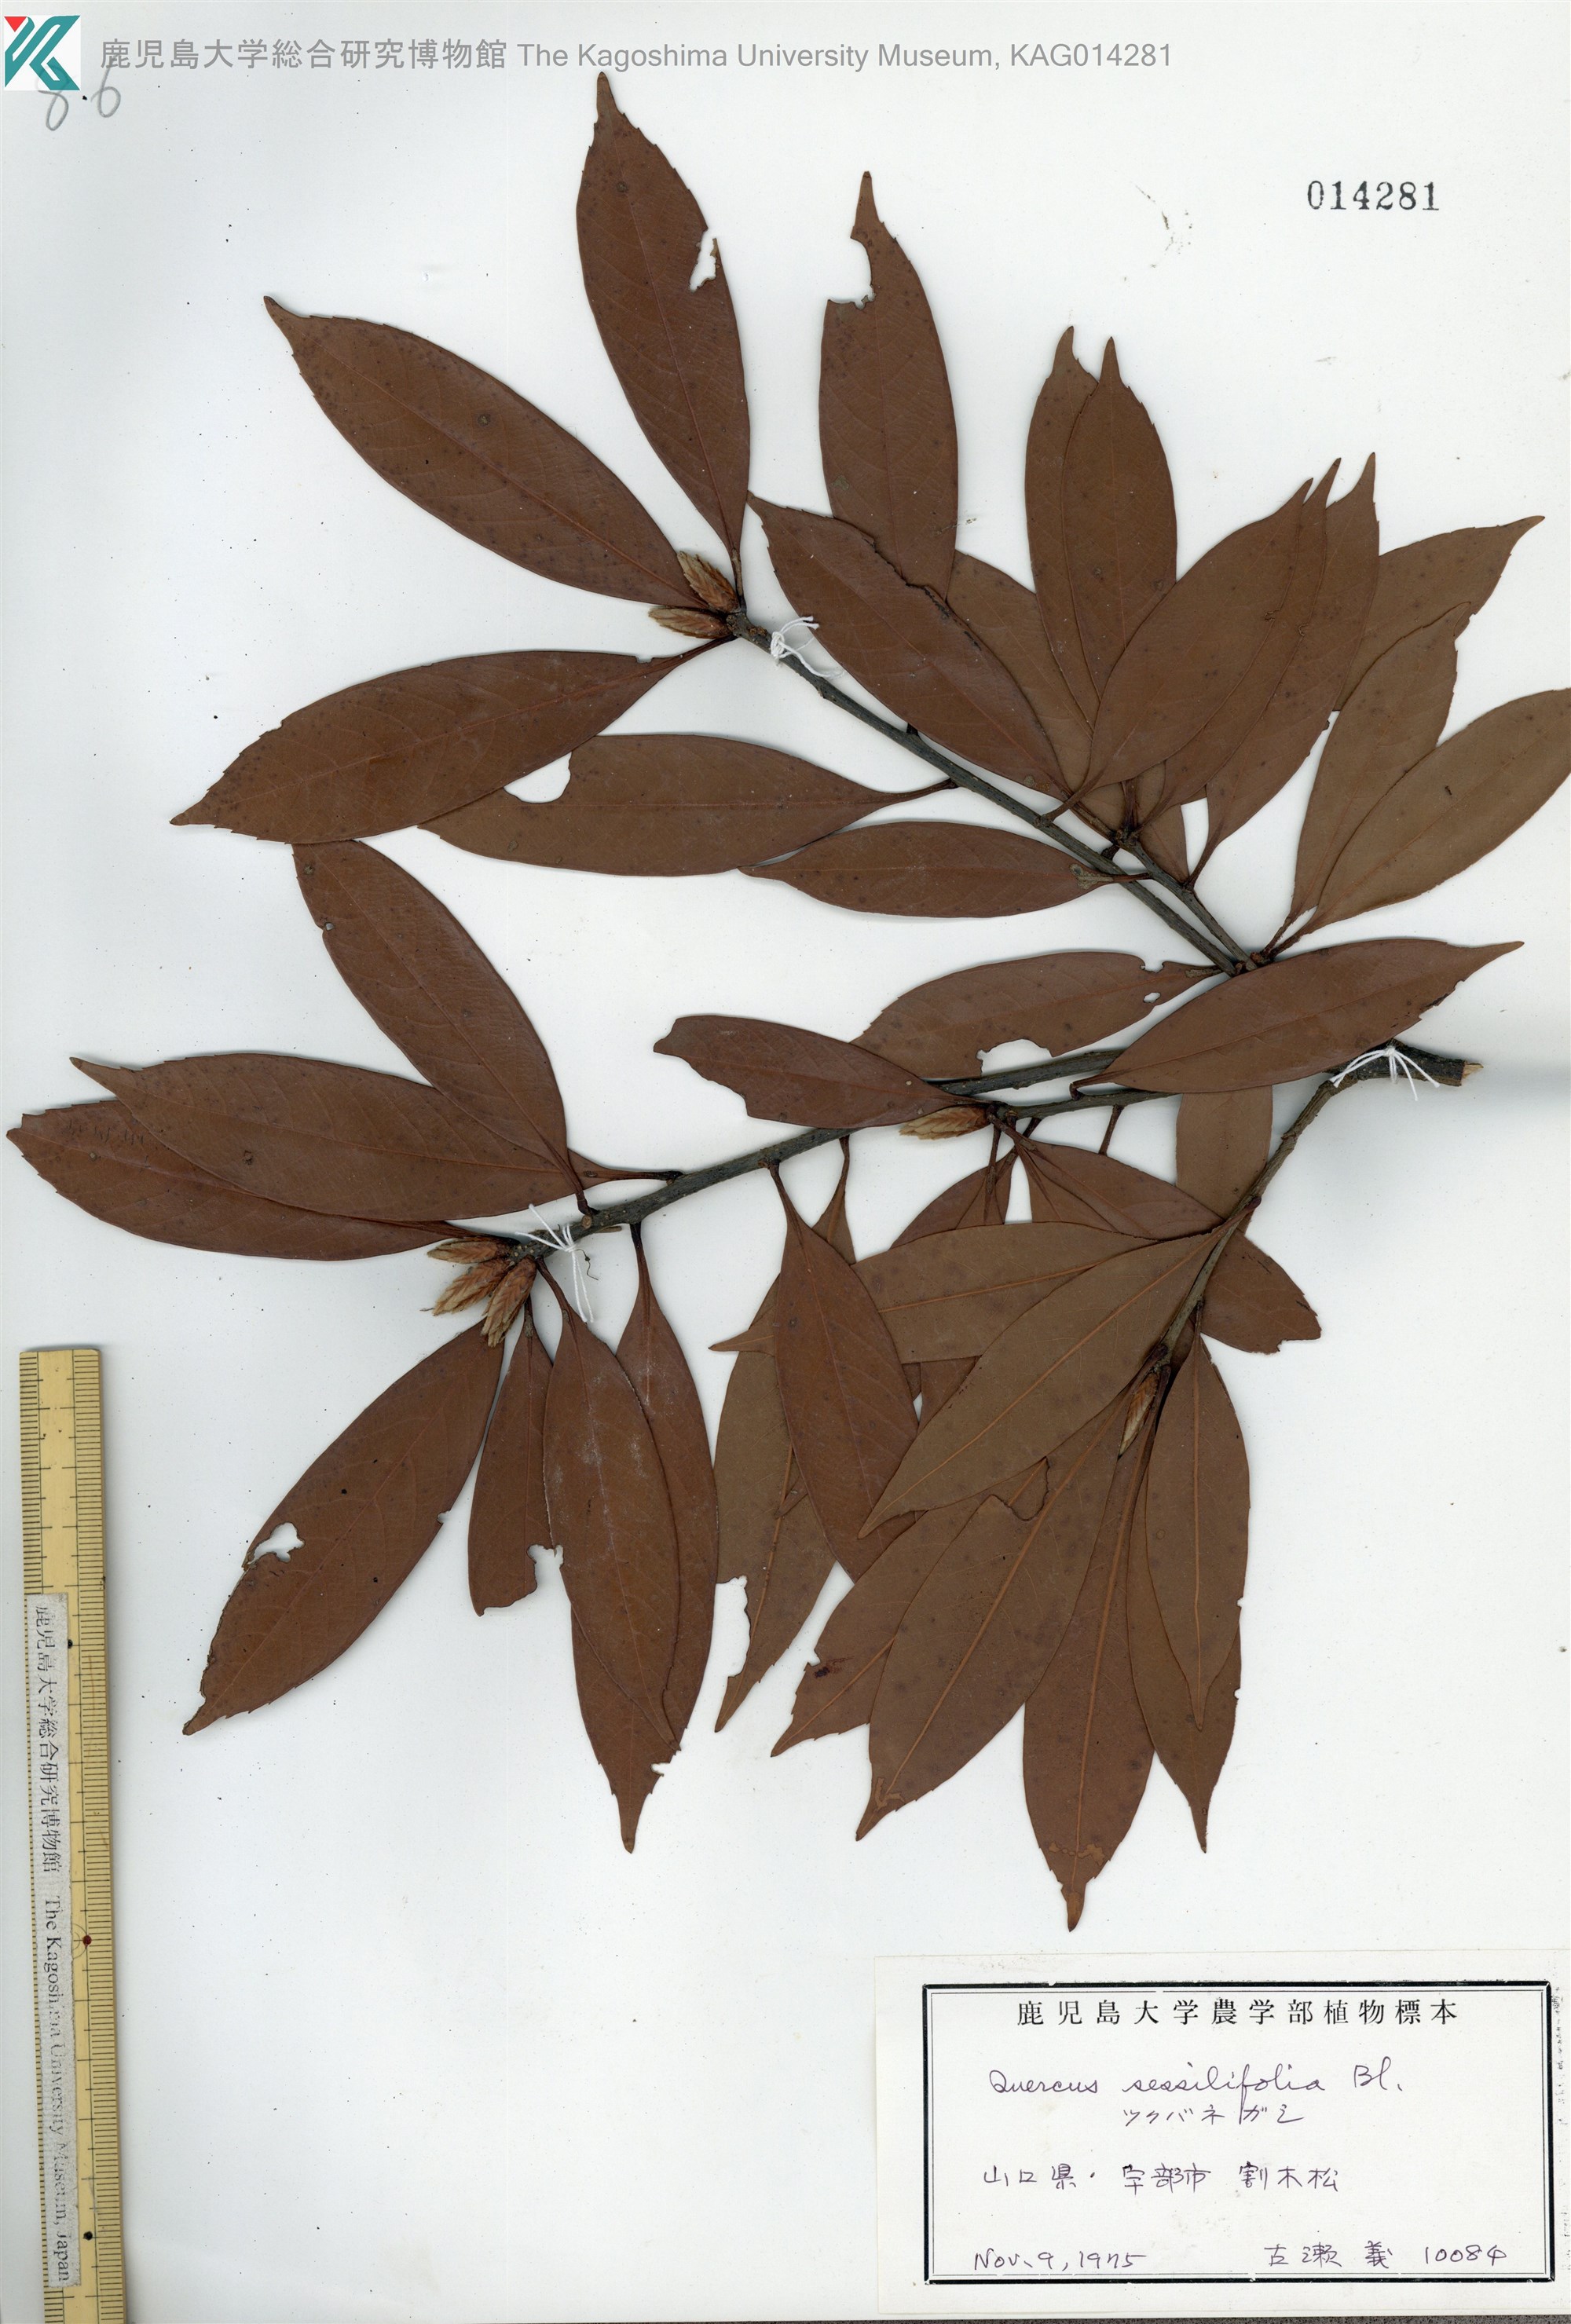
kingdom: Plantae
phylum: Tracheophyta
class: Magnoliopsida
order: Fagales
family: Fagaceae
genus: Quercus
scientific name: Quercus sessilifolia
